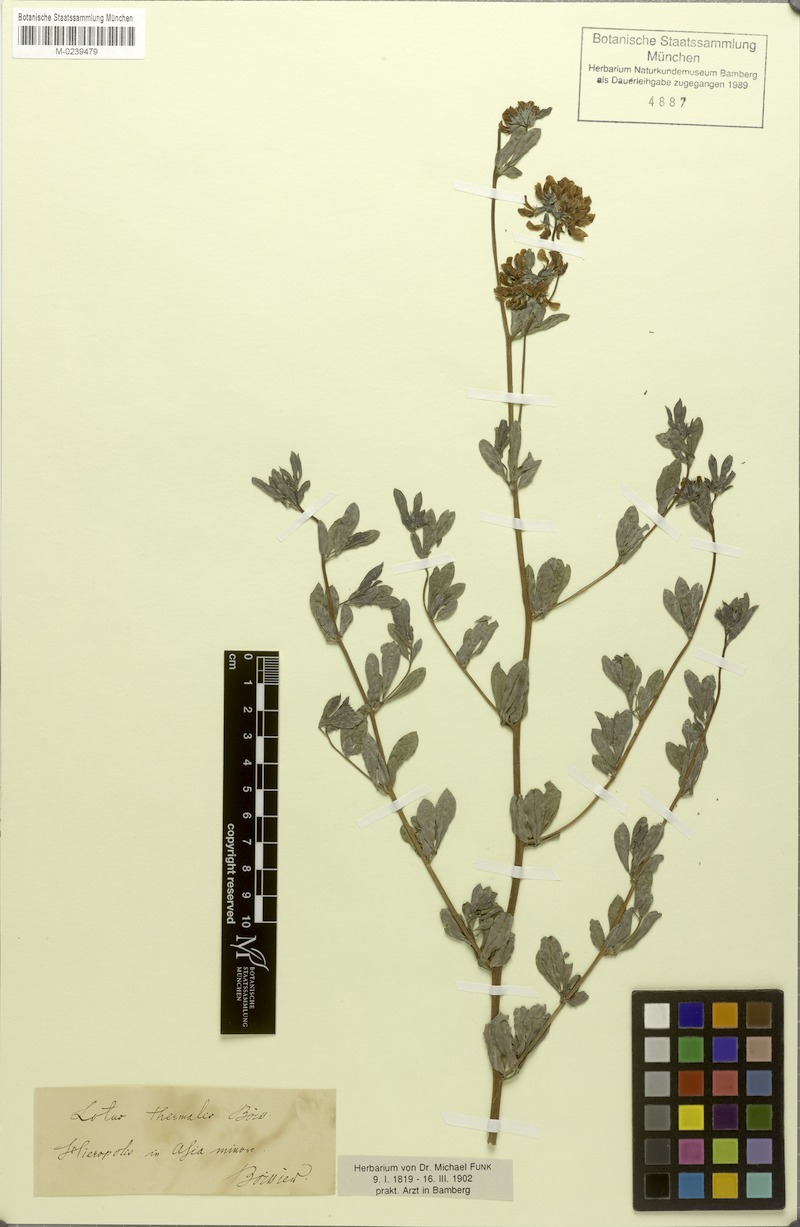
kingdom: Plantae
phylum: Tracheophyta
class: Magnoliopsida
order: Fabales
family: Fabaceae
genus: Lotus
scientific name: Lotus strictus
